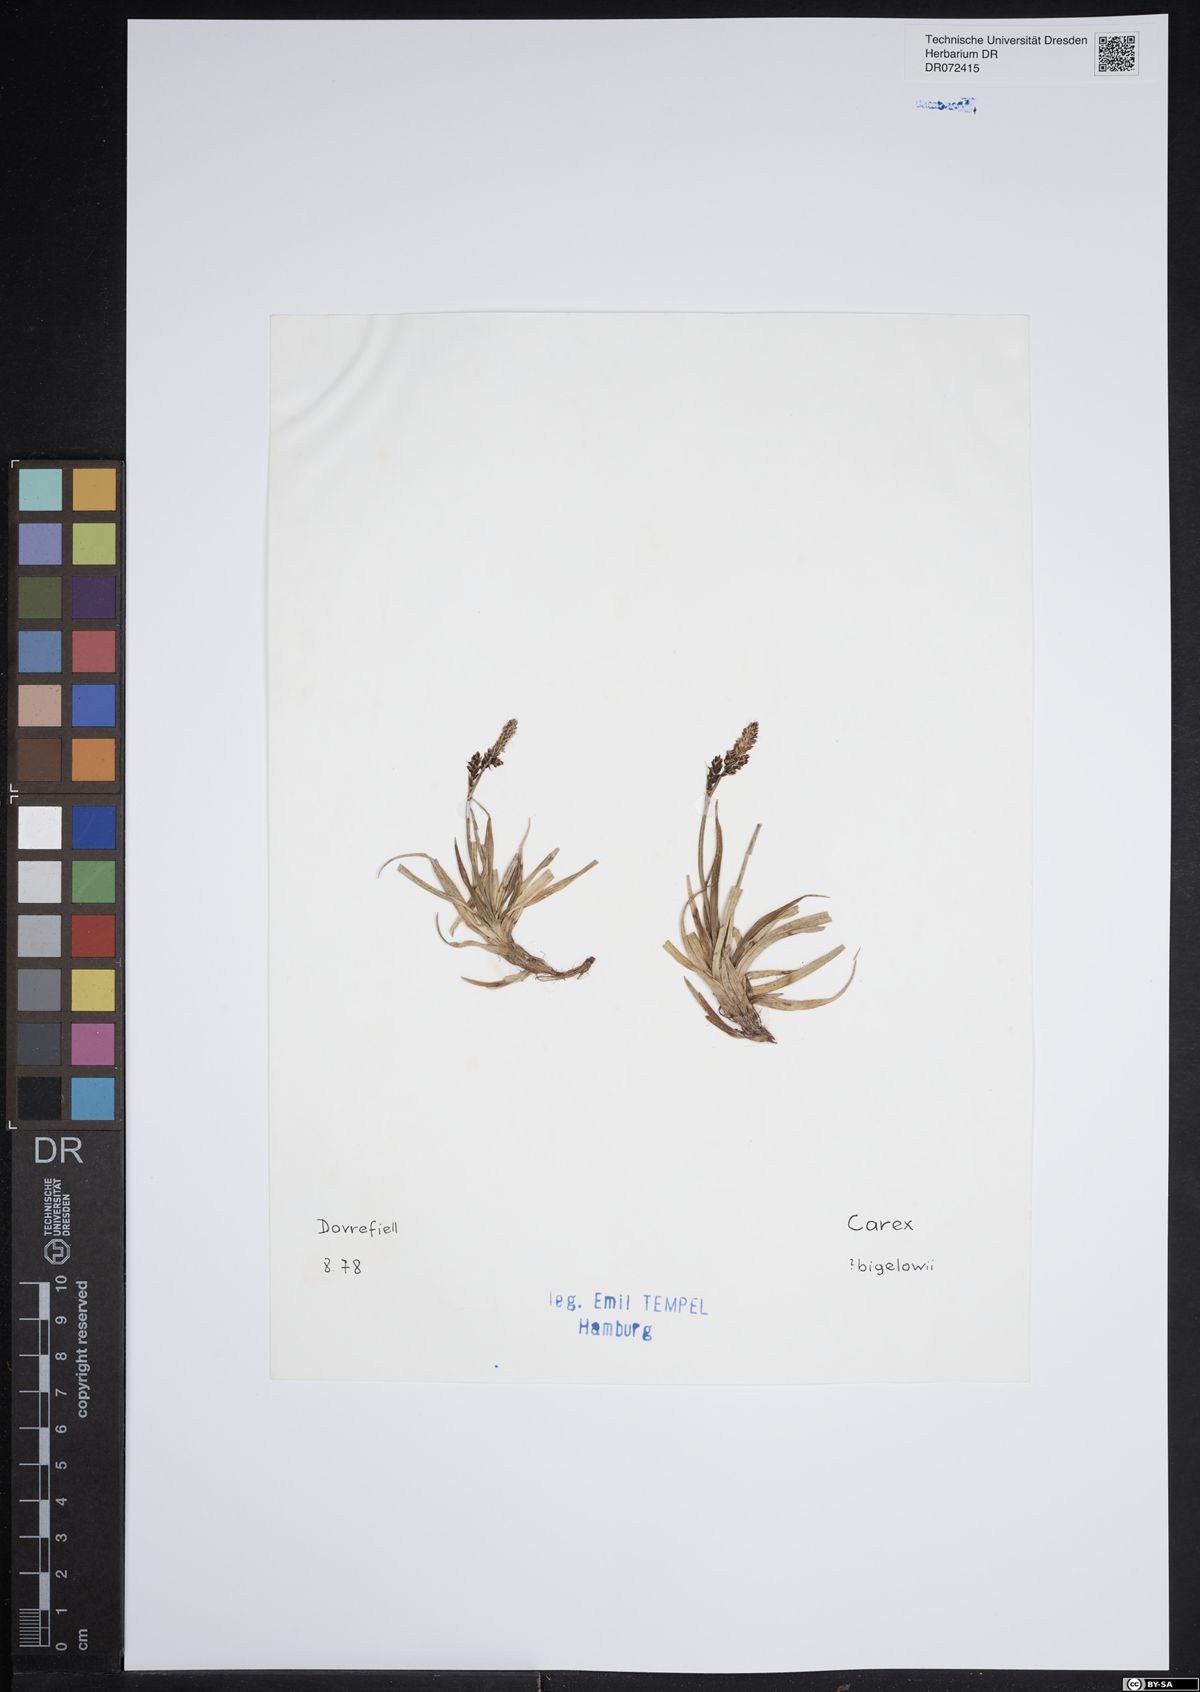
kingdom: Plantae
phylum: Tracheophyta
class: Liliopsida
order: Poales
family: Cyperaceae
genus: Carex
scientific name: Carex bigelowii
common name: Stiff sedge
